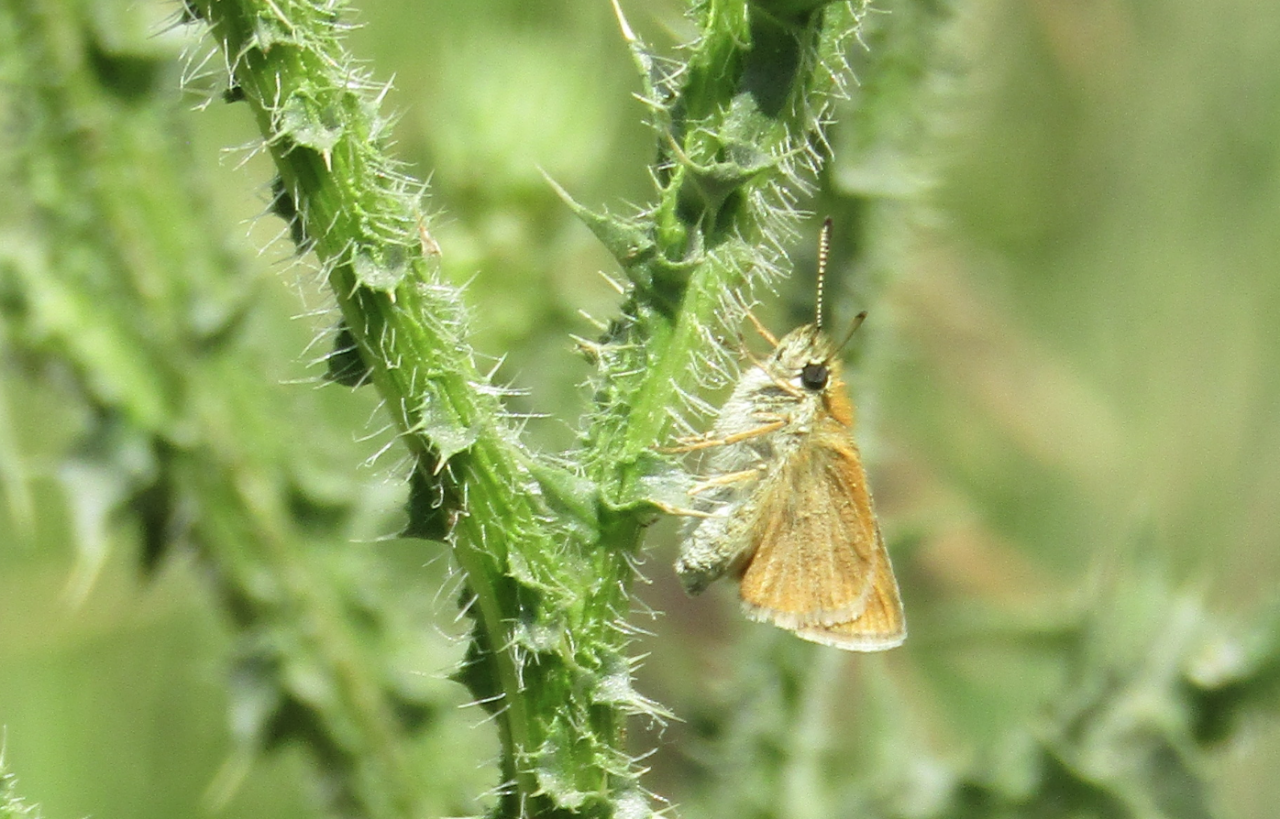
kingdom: Animalia
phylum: Arthropoda
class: Insecta
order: Lepidoptera
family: Hesperiidae
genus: Oarisma
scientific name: Oarisma garita
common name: Garita Skipperling
